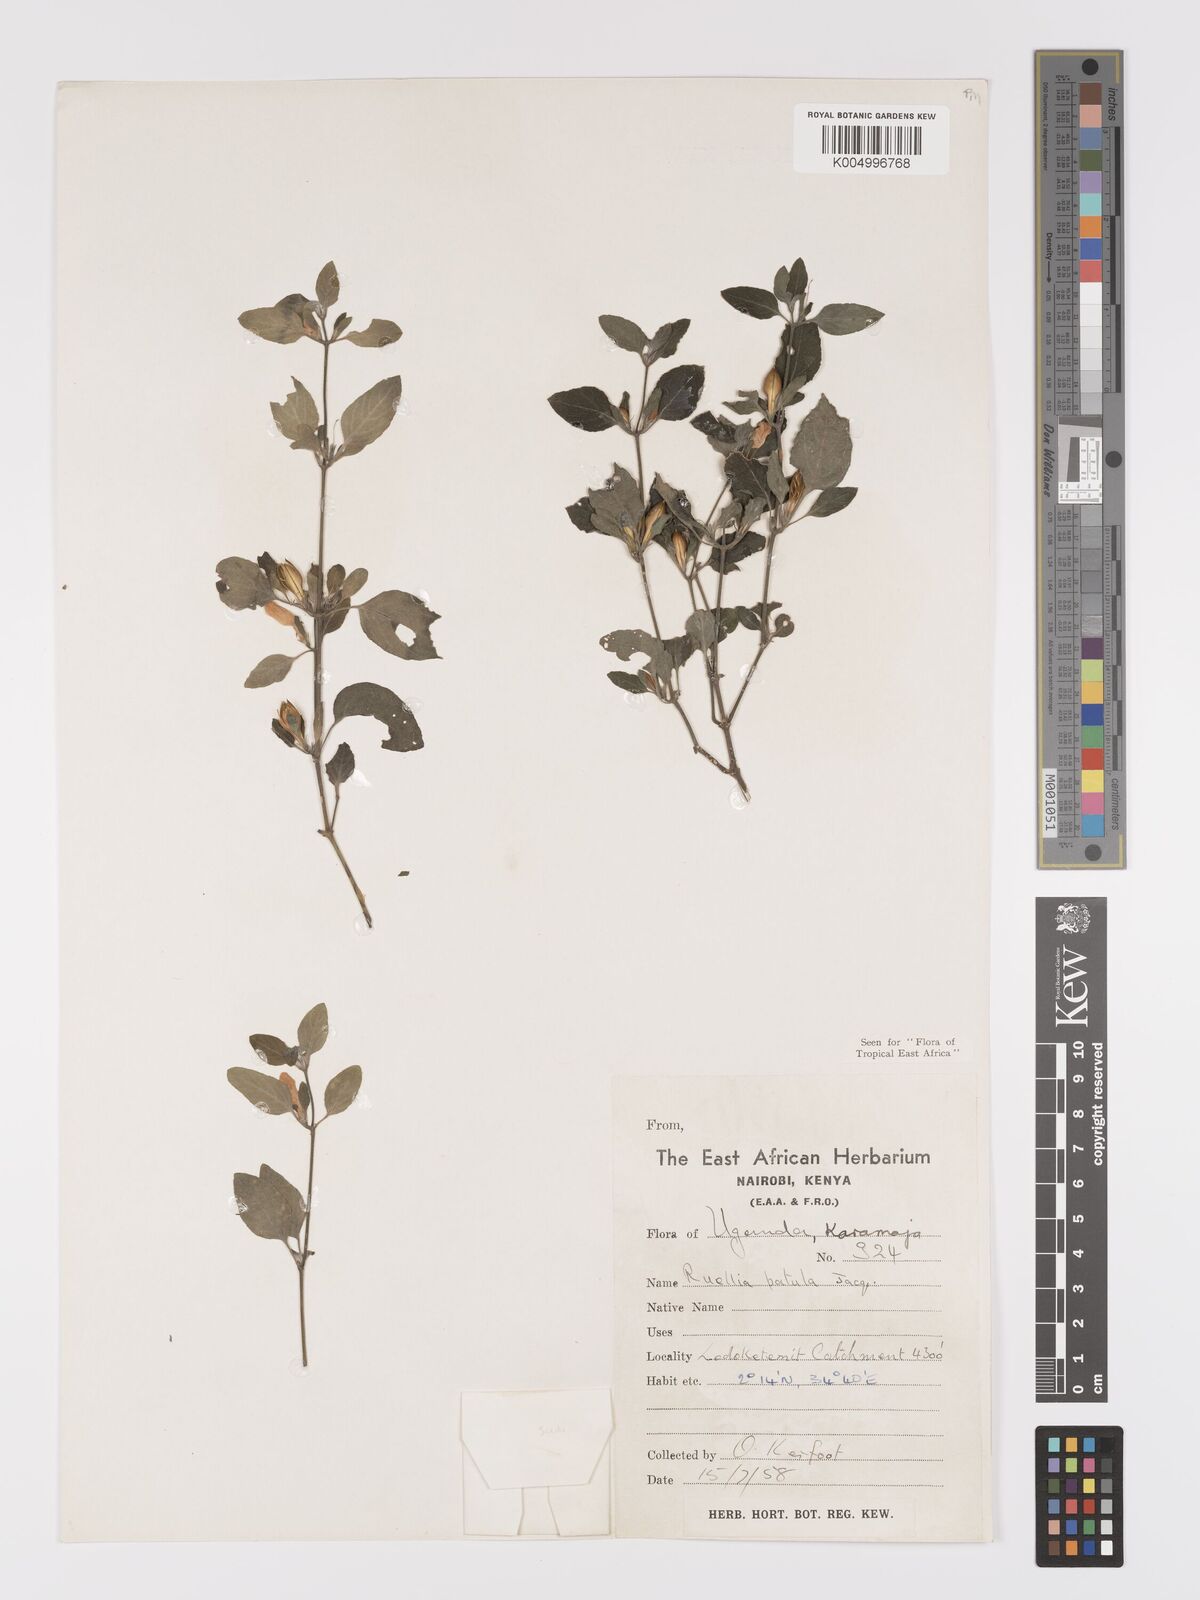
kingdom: Plantae
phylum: Tracheophyta
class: Magnoliopsida
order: Lamiales
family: Acanthaceae
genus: Ruellia
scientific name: Ruellia patula
